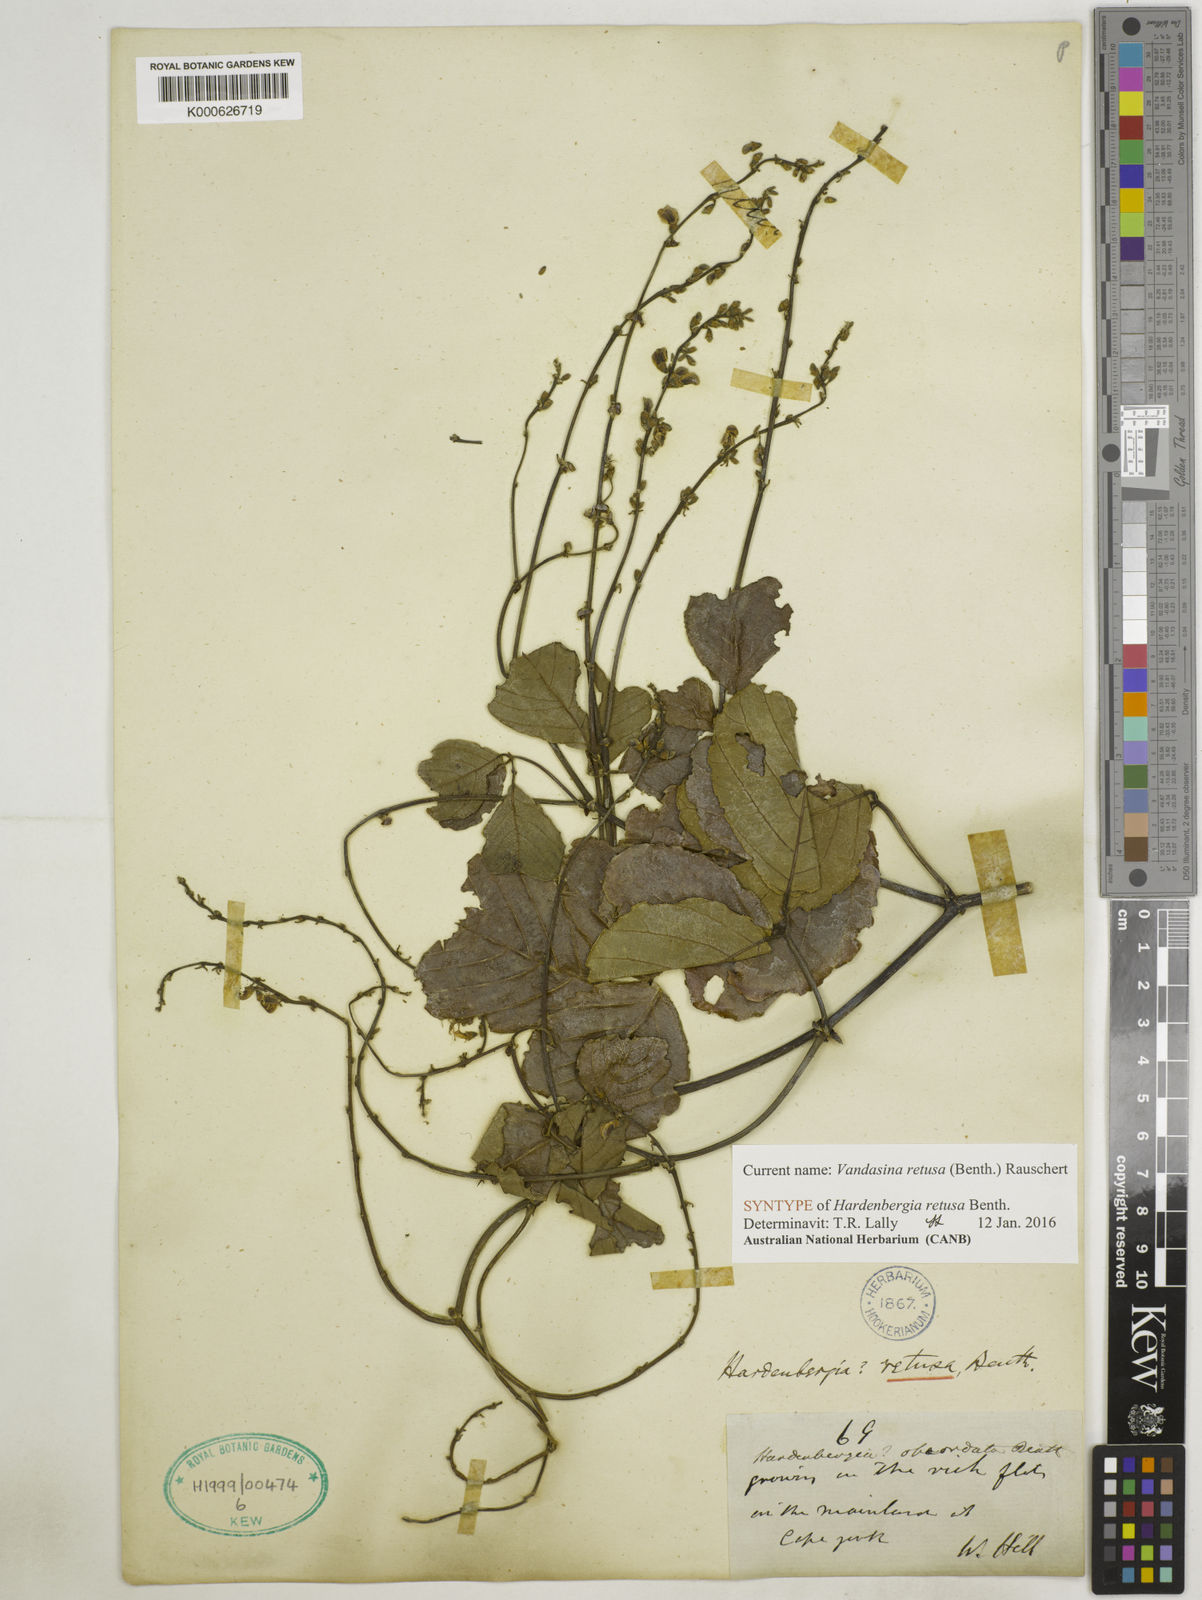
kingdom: Plantae
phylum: Tracheophyta
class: Magnoliopsida
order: Fabales
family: Fabaceae
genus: Vandasina
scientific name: Vandasina retusa
